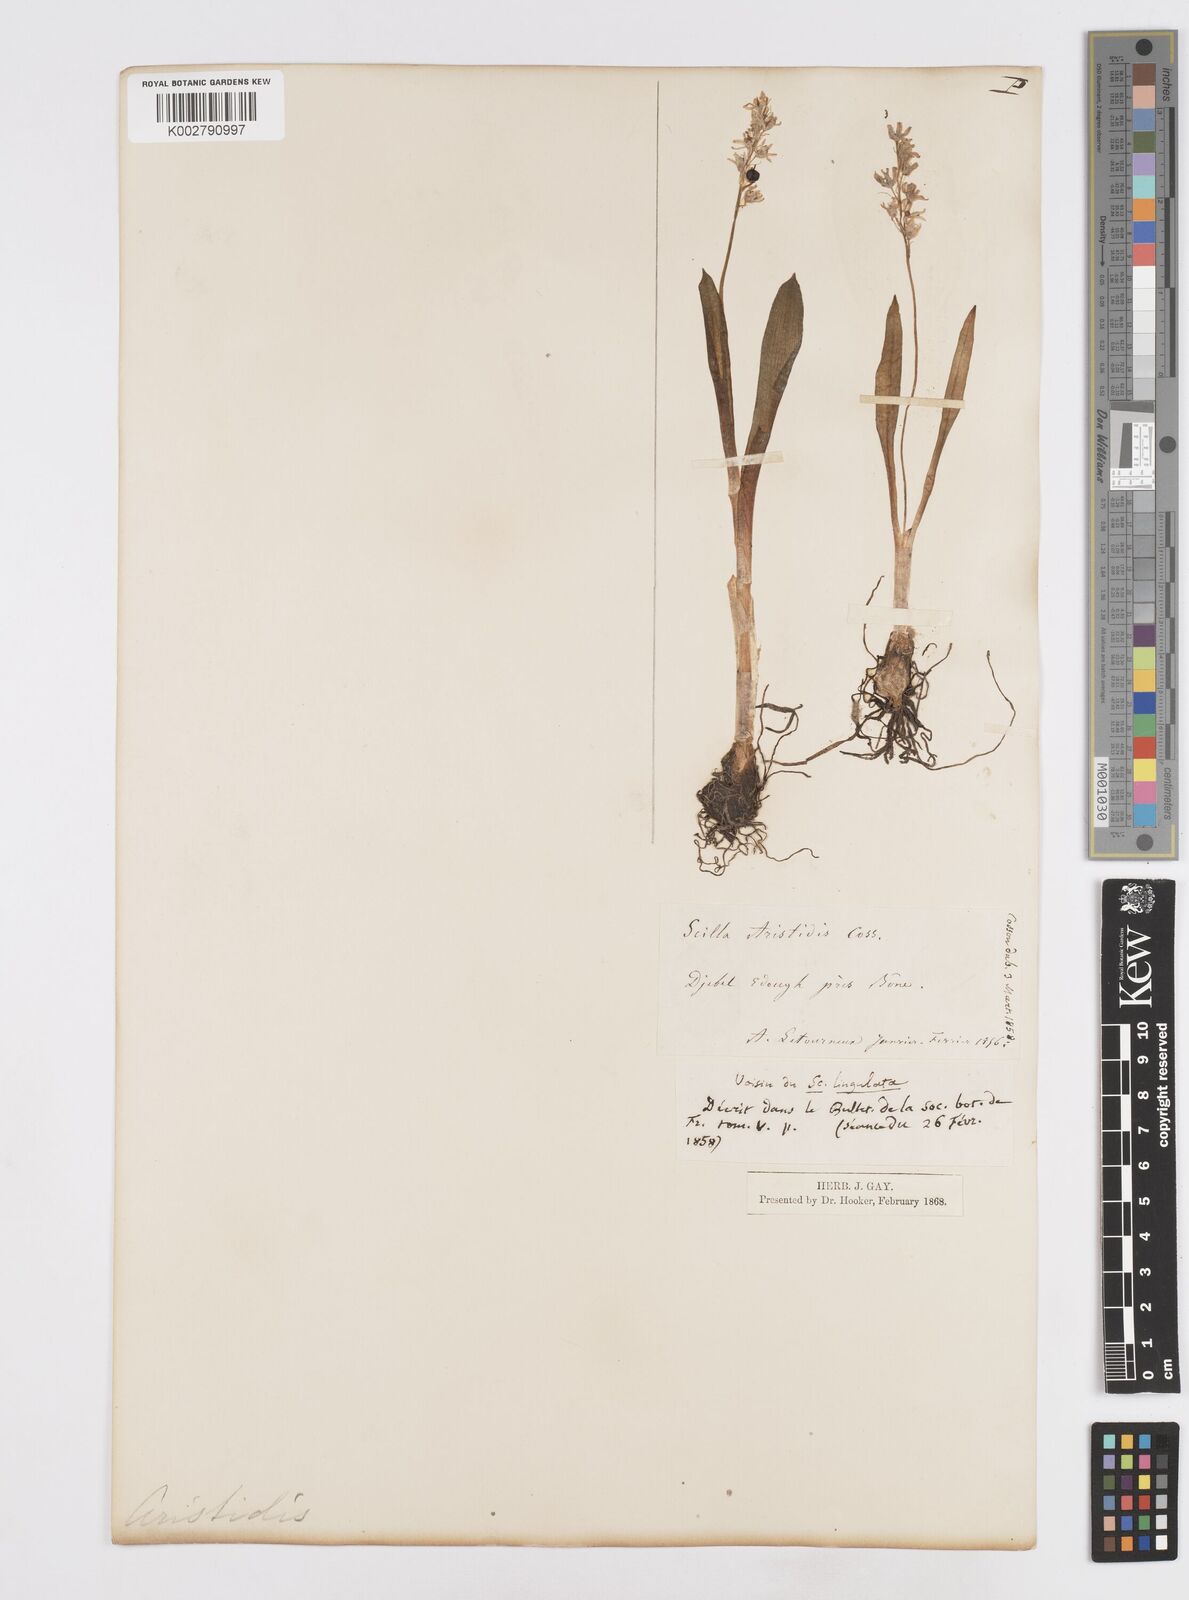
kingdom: Plantae
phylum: Tracheophyta
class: Liliopsida
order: Asparagales
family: Asparagaceae
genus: Hyacinthoides
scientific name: Hyacinthoides aristidis
